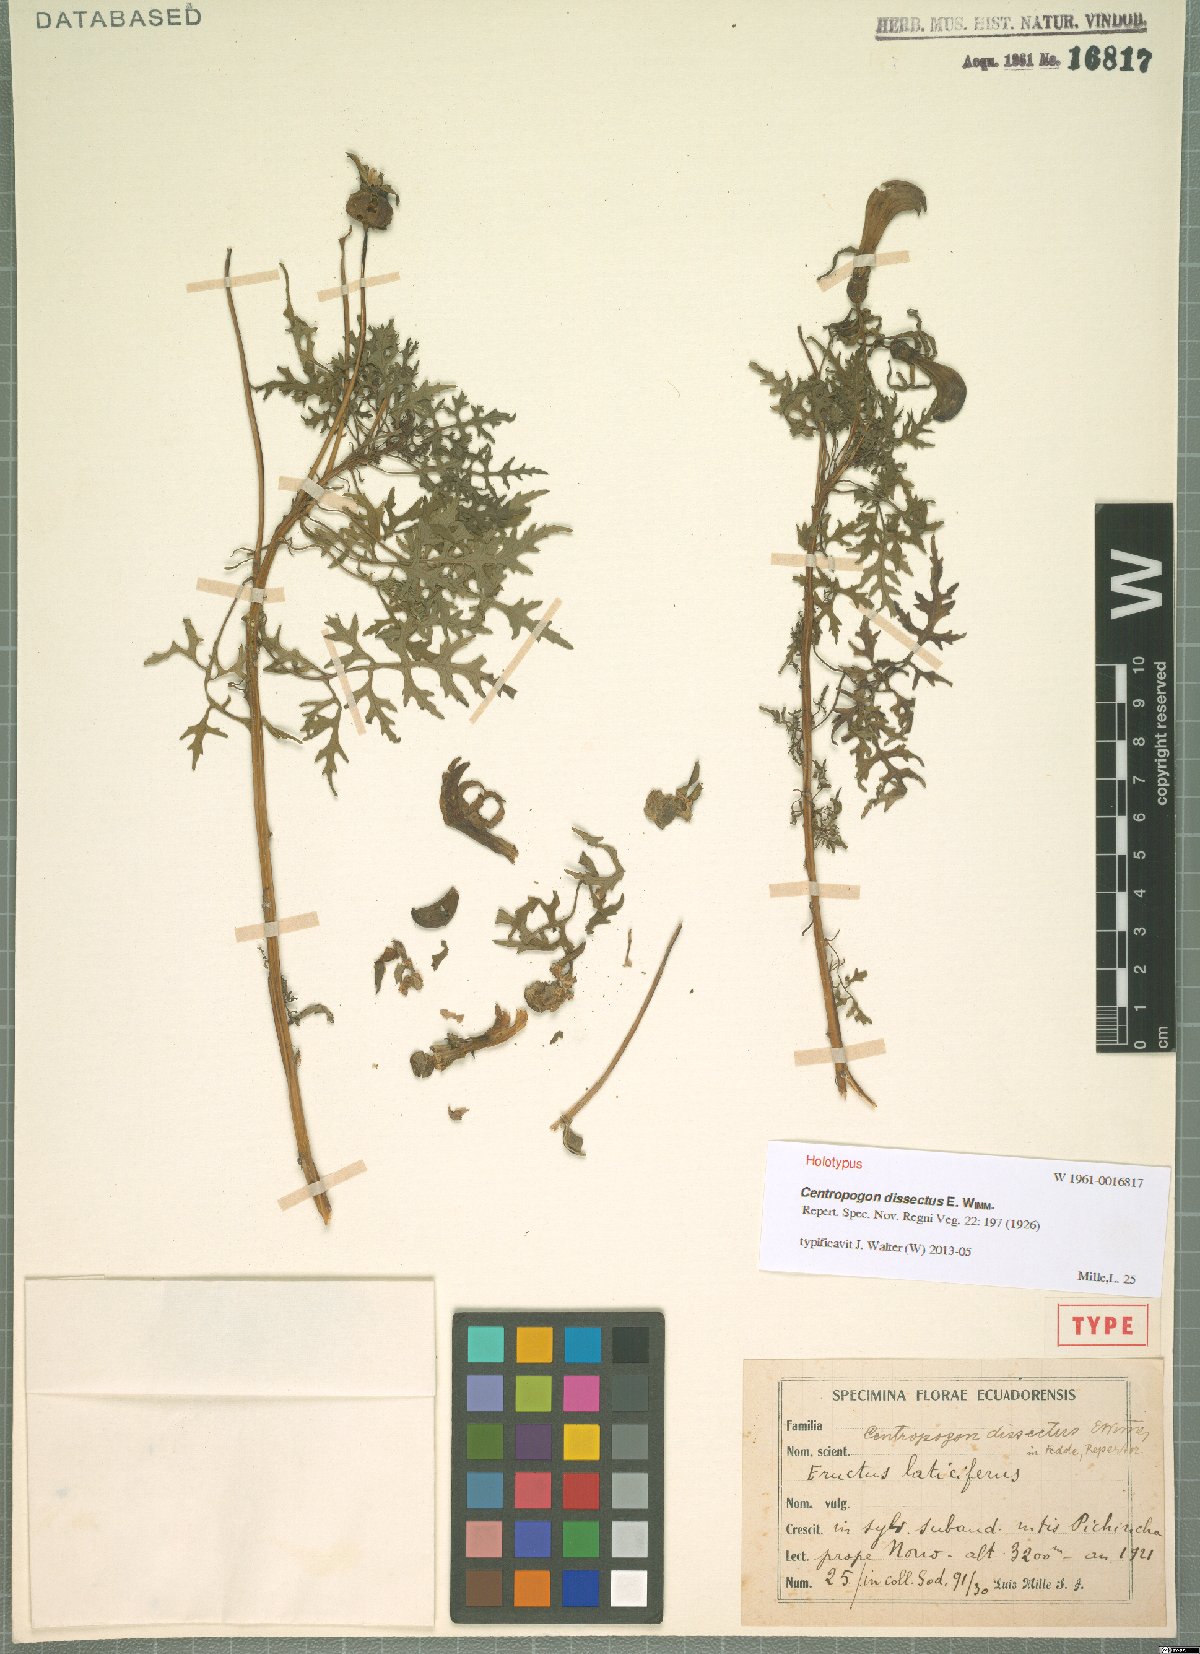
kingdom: Plantae
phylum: Tracheophyta
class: Magnoliopsida
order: Asterales
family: Campanulaceae
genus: Centropogon
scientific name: Centropogon dissectus
